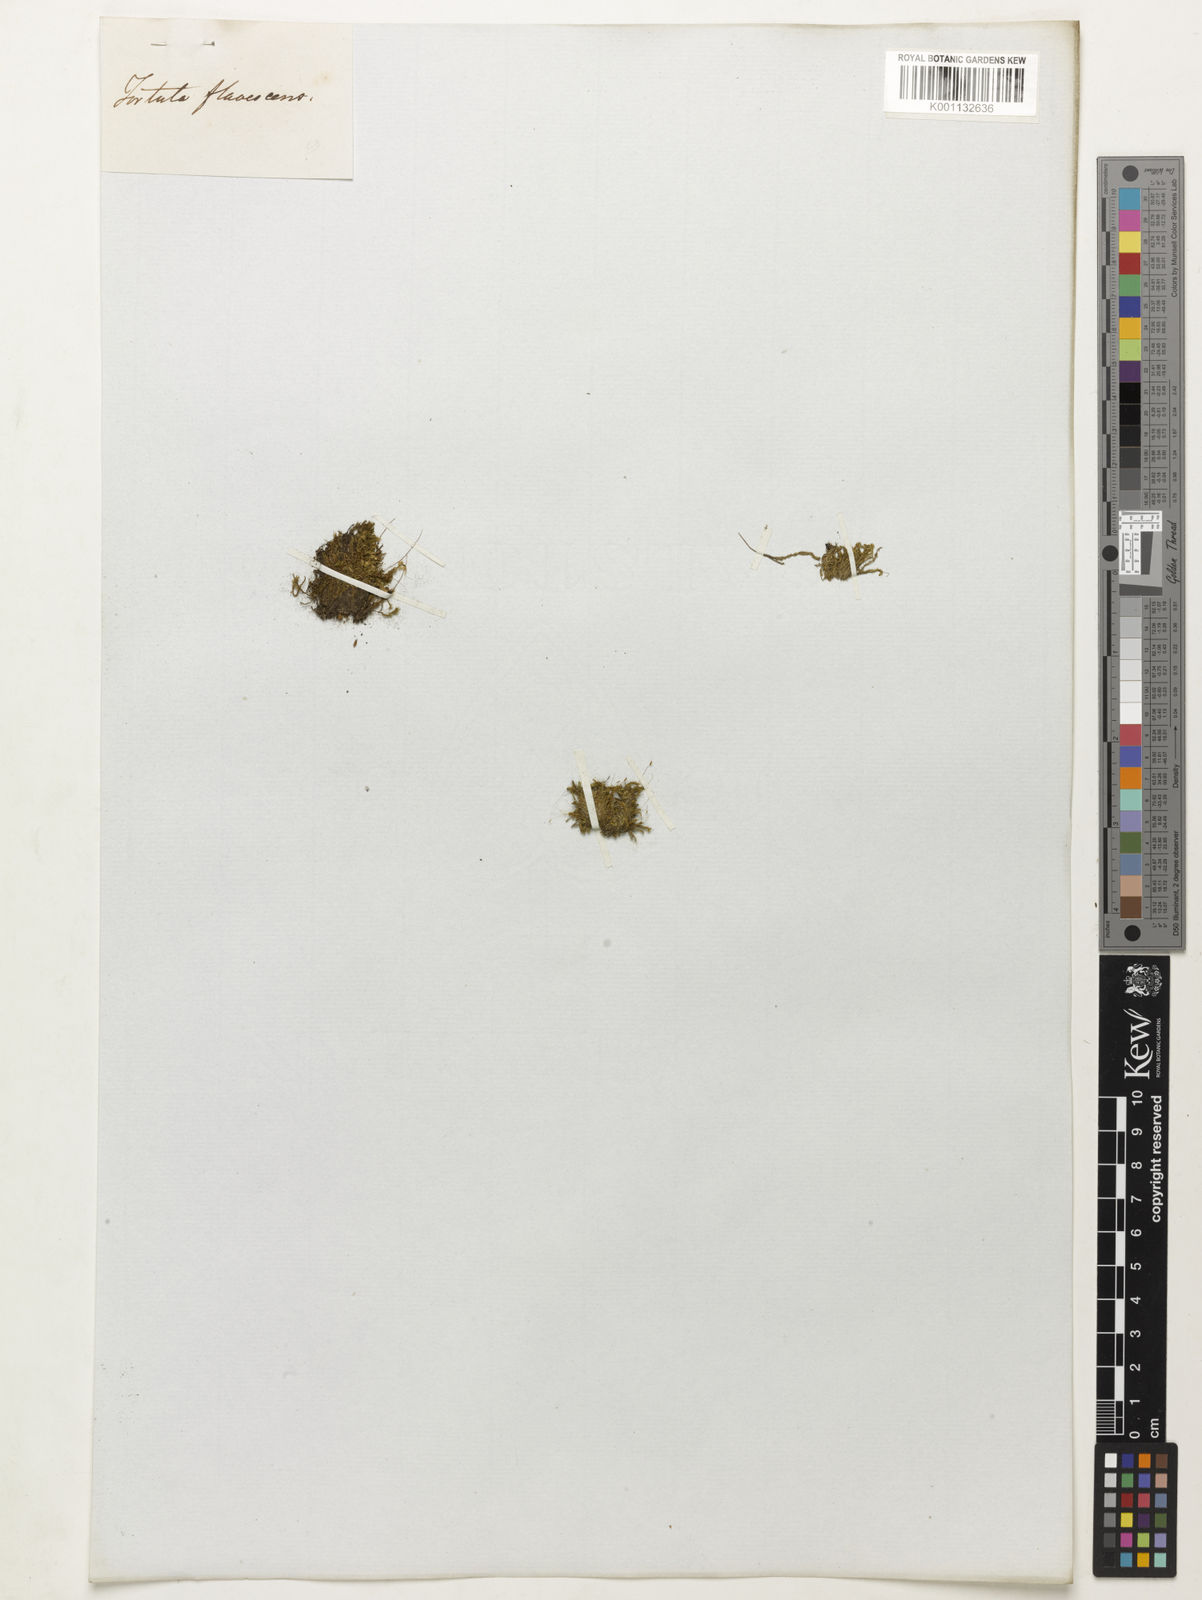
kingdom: Plantae
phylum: Bryophyta
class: Bryopsida
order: Hypnales
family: Meteoriaceae
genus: Tortula
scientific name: Tortula
